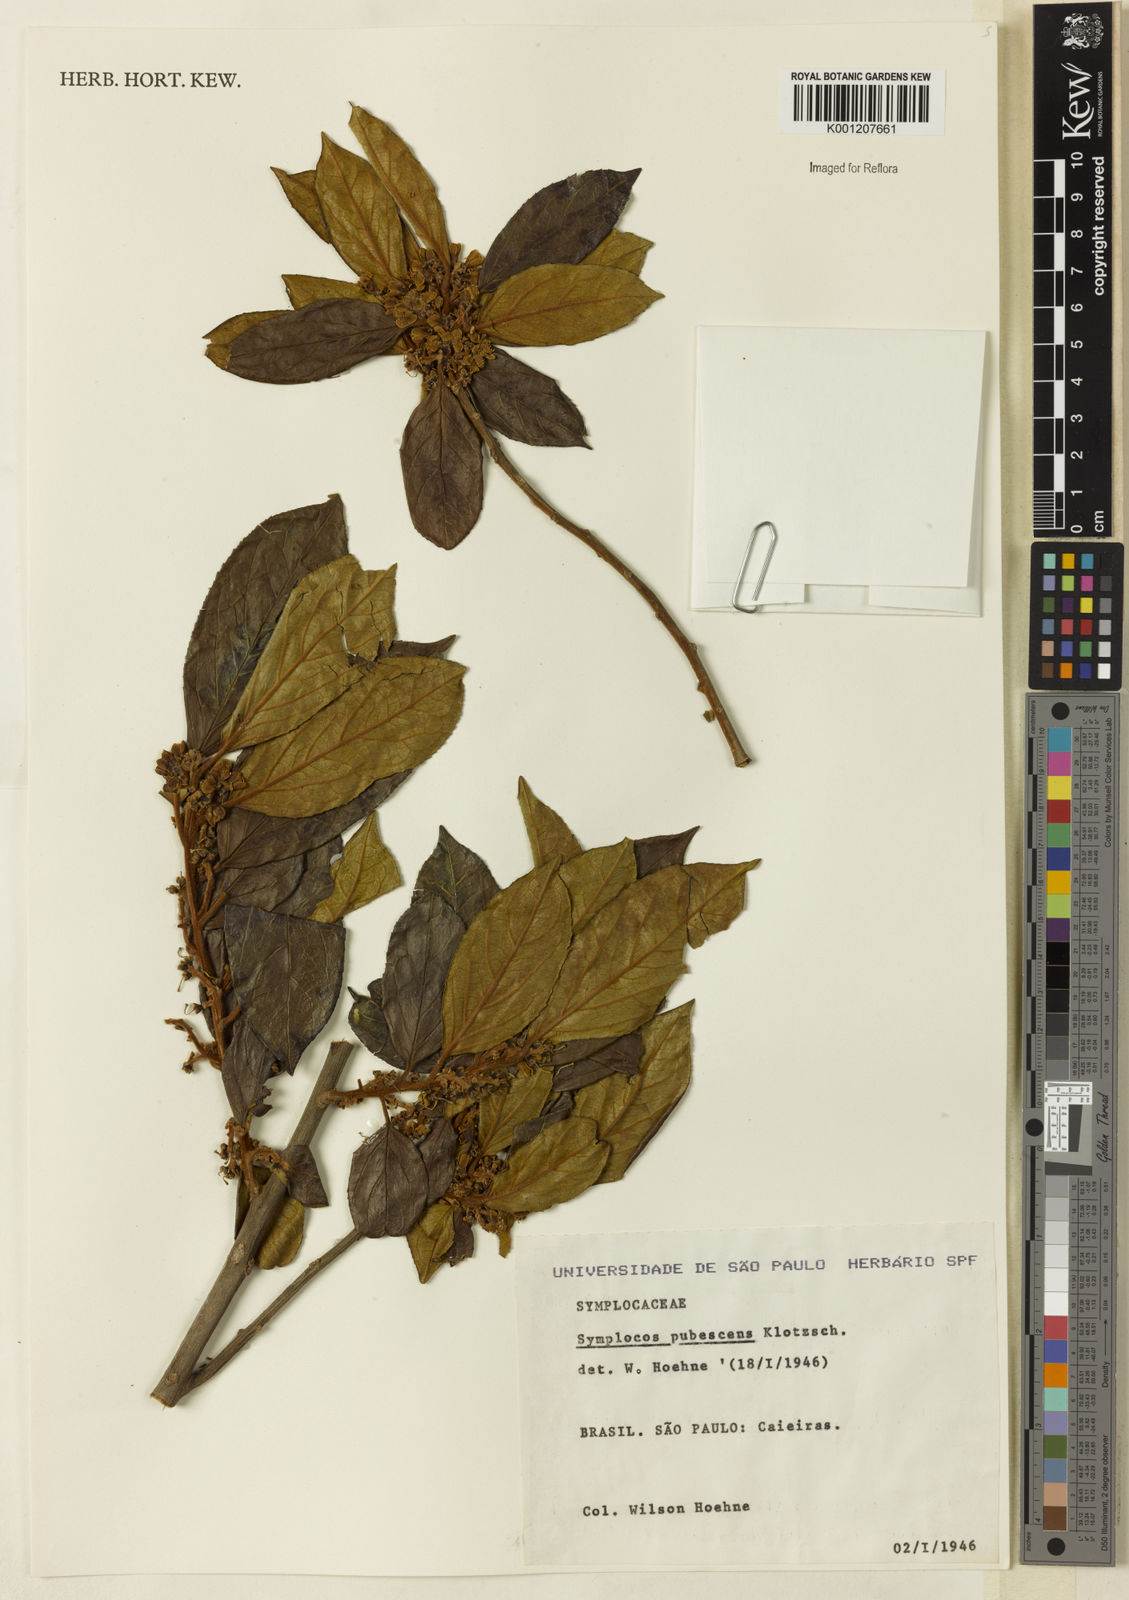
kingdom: Plantae
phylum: Tracheophyta
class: Magnoliopsida
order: Ericales
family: Symplocaceae
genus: Symplocos
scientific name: Symplocos pubescens
